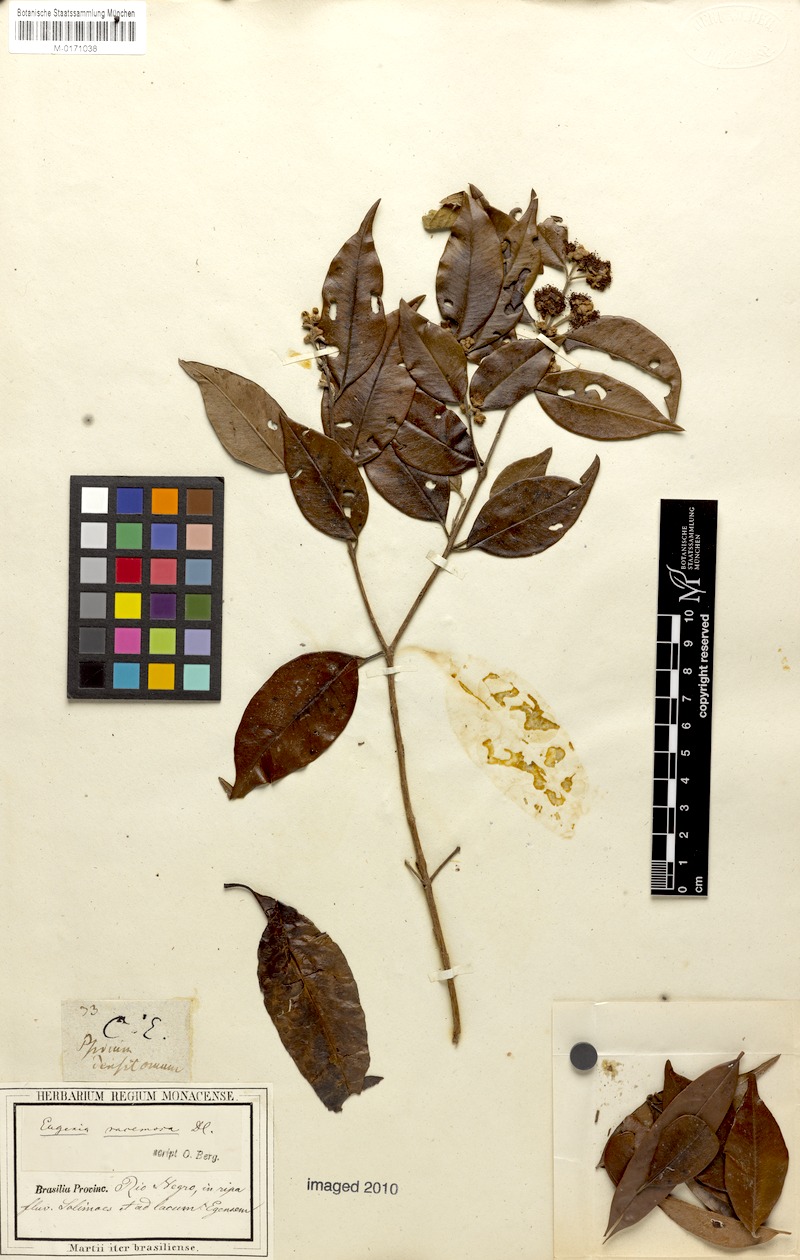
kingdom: Plantae
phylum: Tracheophyta
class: Magnoliopsida
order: Myrtales
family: Myrtaceae
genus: Psidium
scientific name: Psidium densicomum
